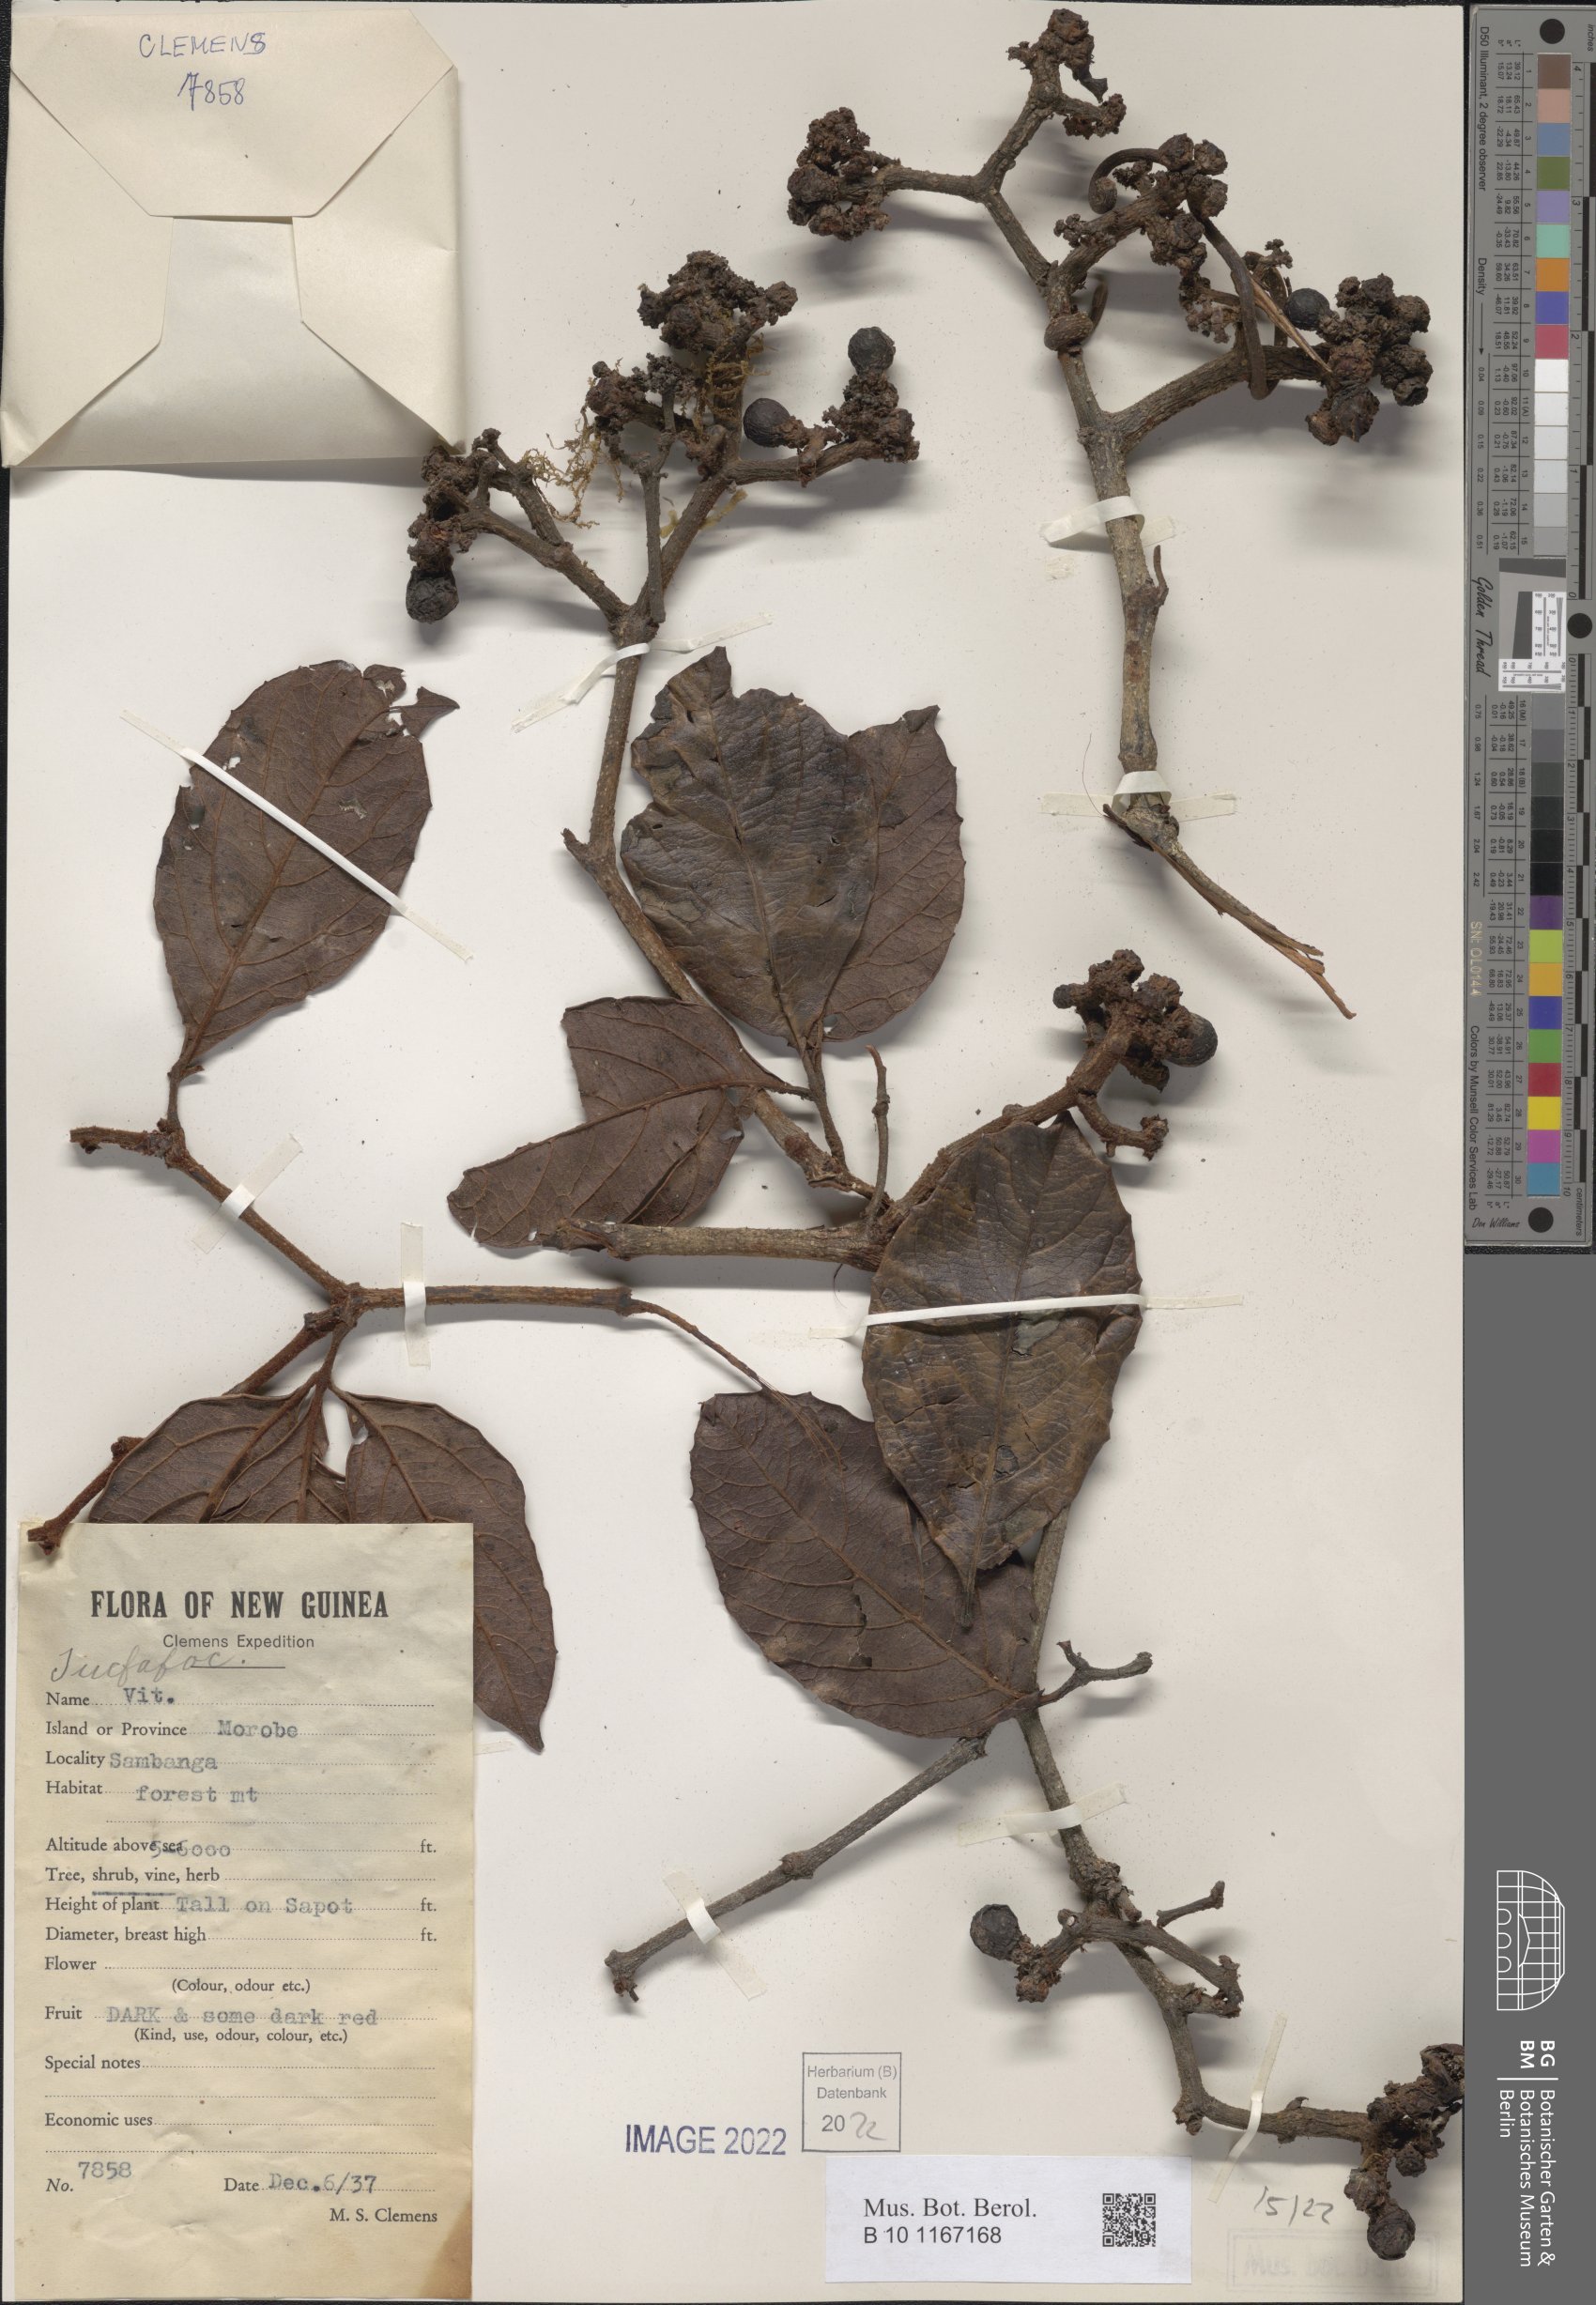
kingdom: Plantae
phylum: Tracheophyta
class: Magnoliopsida
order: Vitales
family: Vitaceae
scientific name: Vitaceae
